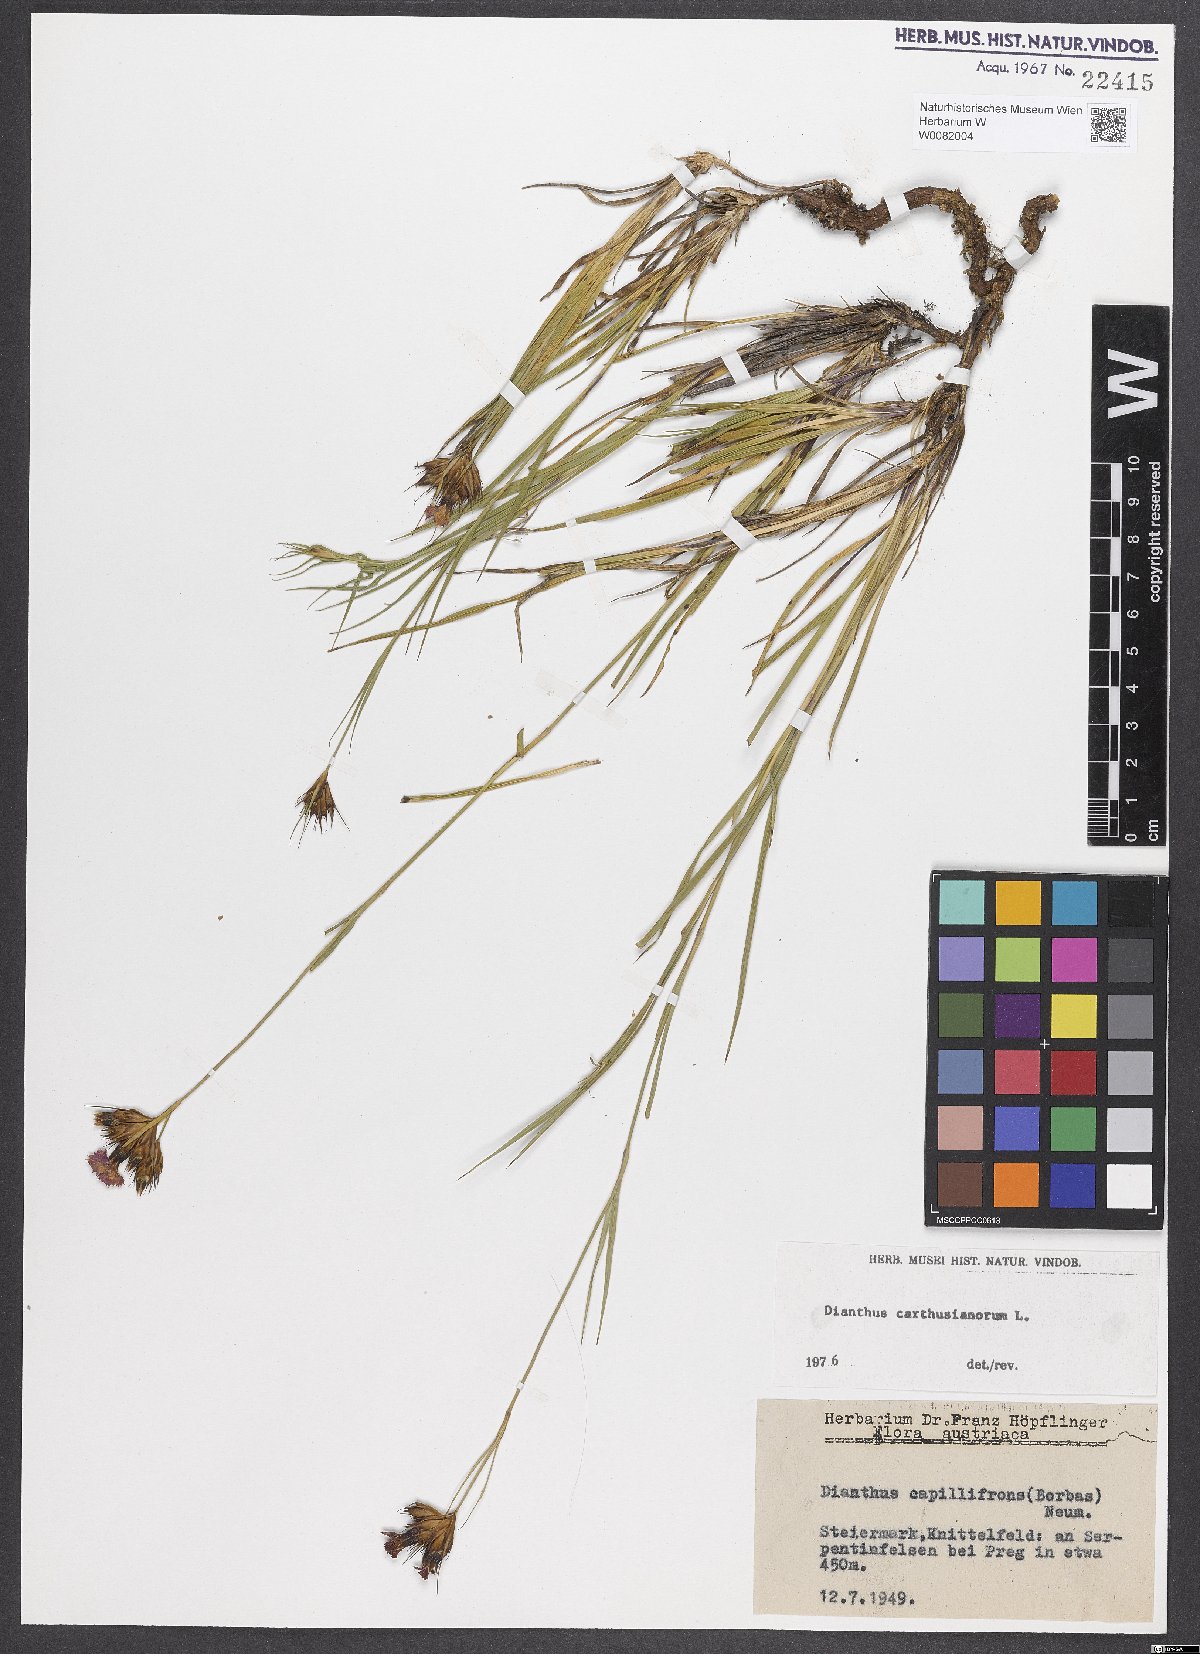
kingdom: Plantae
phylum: Tracheophyta
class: Magnoliopsida
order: Caryophyllales
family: Caryophyllaceae
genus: Dianthus
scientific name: Dianthus carthusianorum
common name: Carthusian pink
